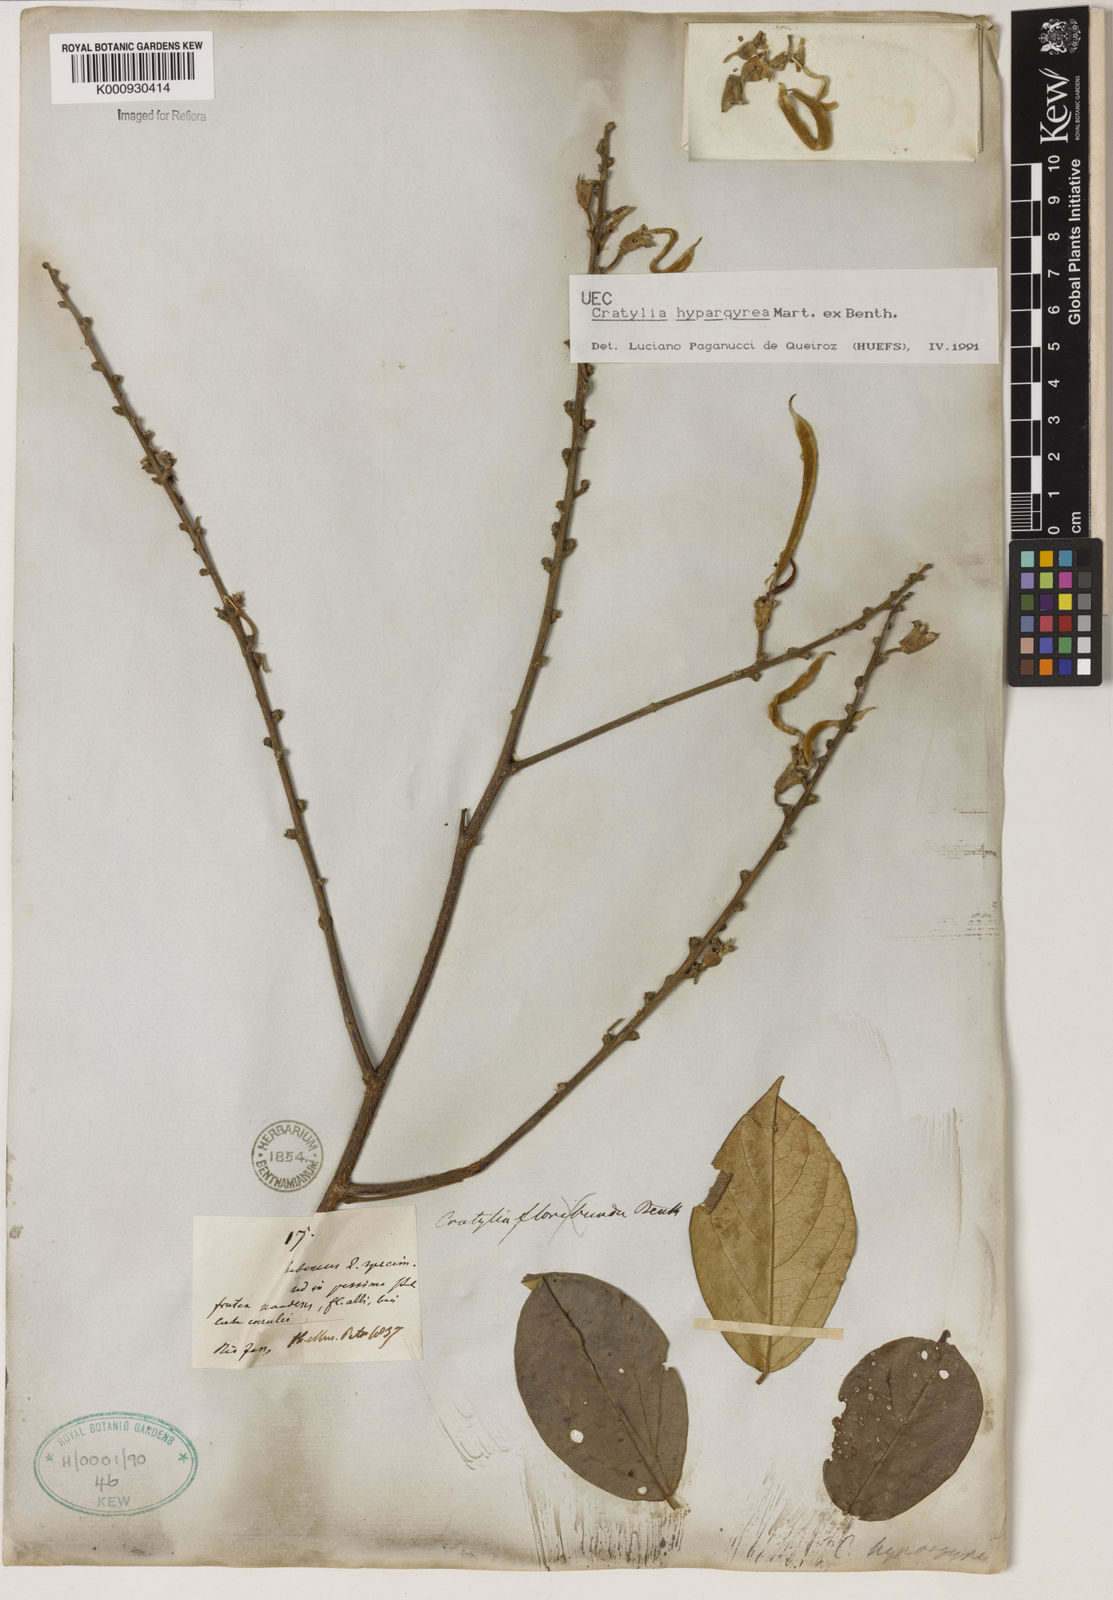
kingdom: Plantae
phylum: Tracheophyta
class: Magnoliopsida
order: Fabales
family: Fabaceae
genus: Cratylia
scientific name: Cratylia
